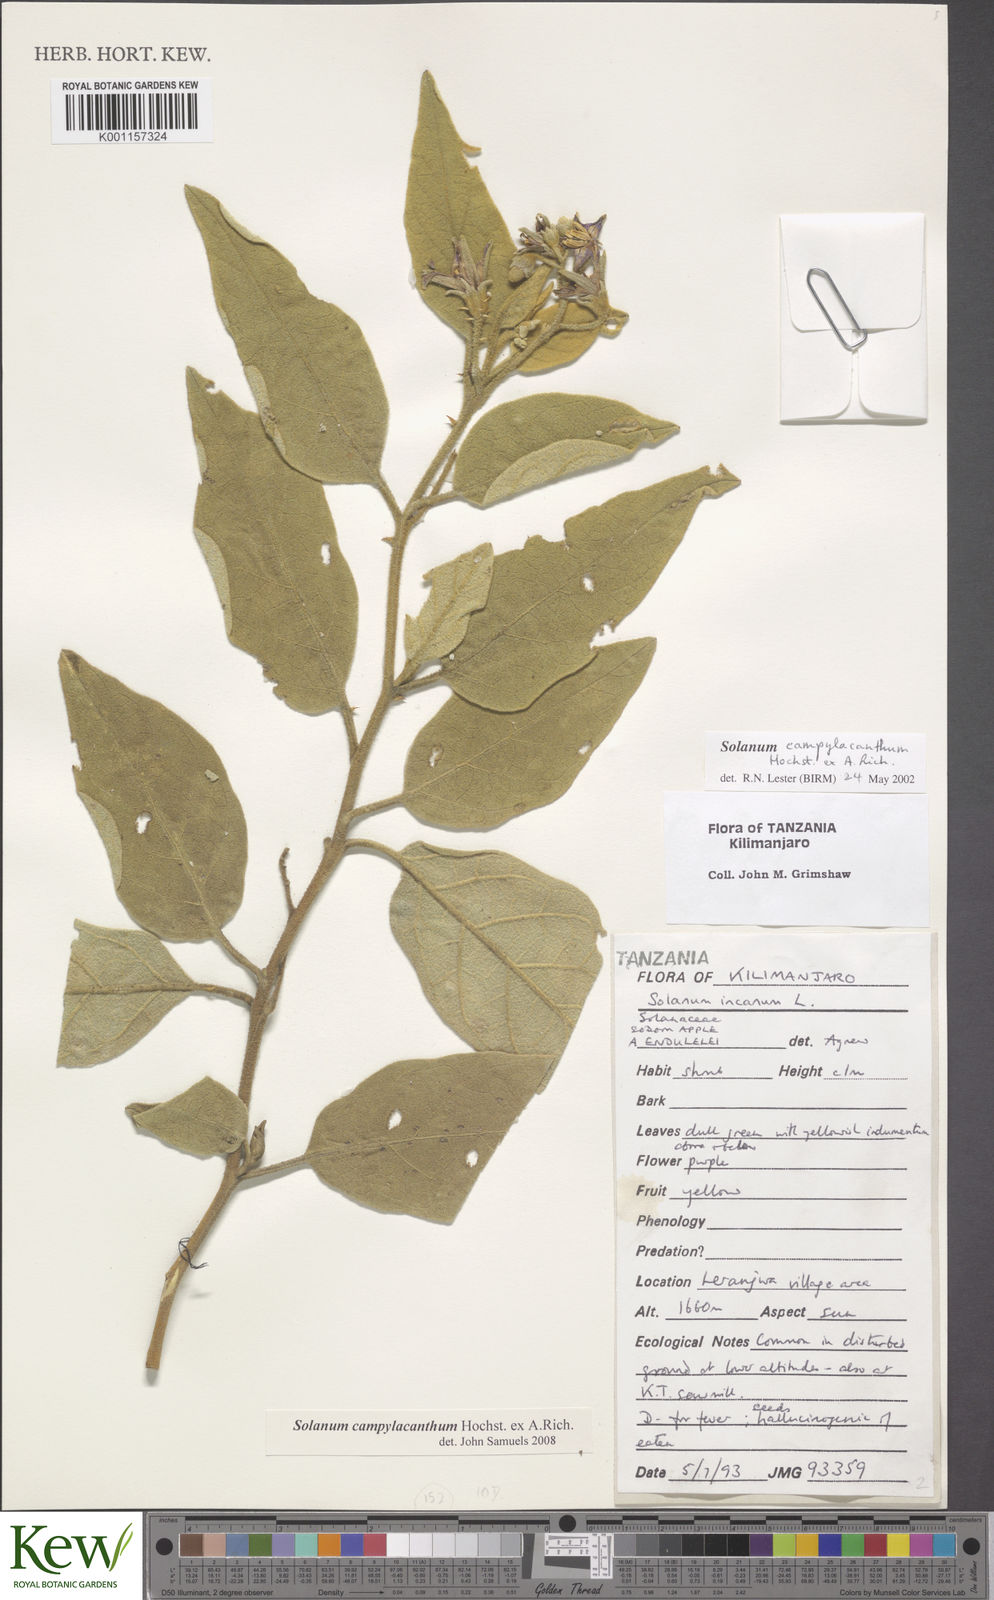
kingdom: Plantae
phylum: Tracheophyta
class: Magnoliopsida
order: Solanales
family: Solanaceae
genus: Solanum
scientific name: Solanum campylacanthum
